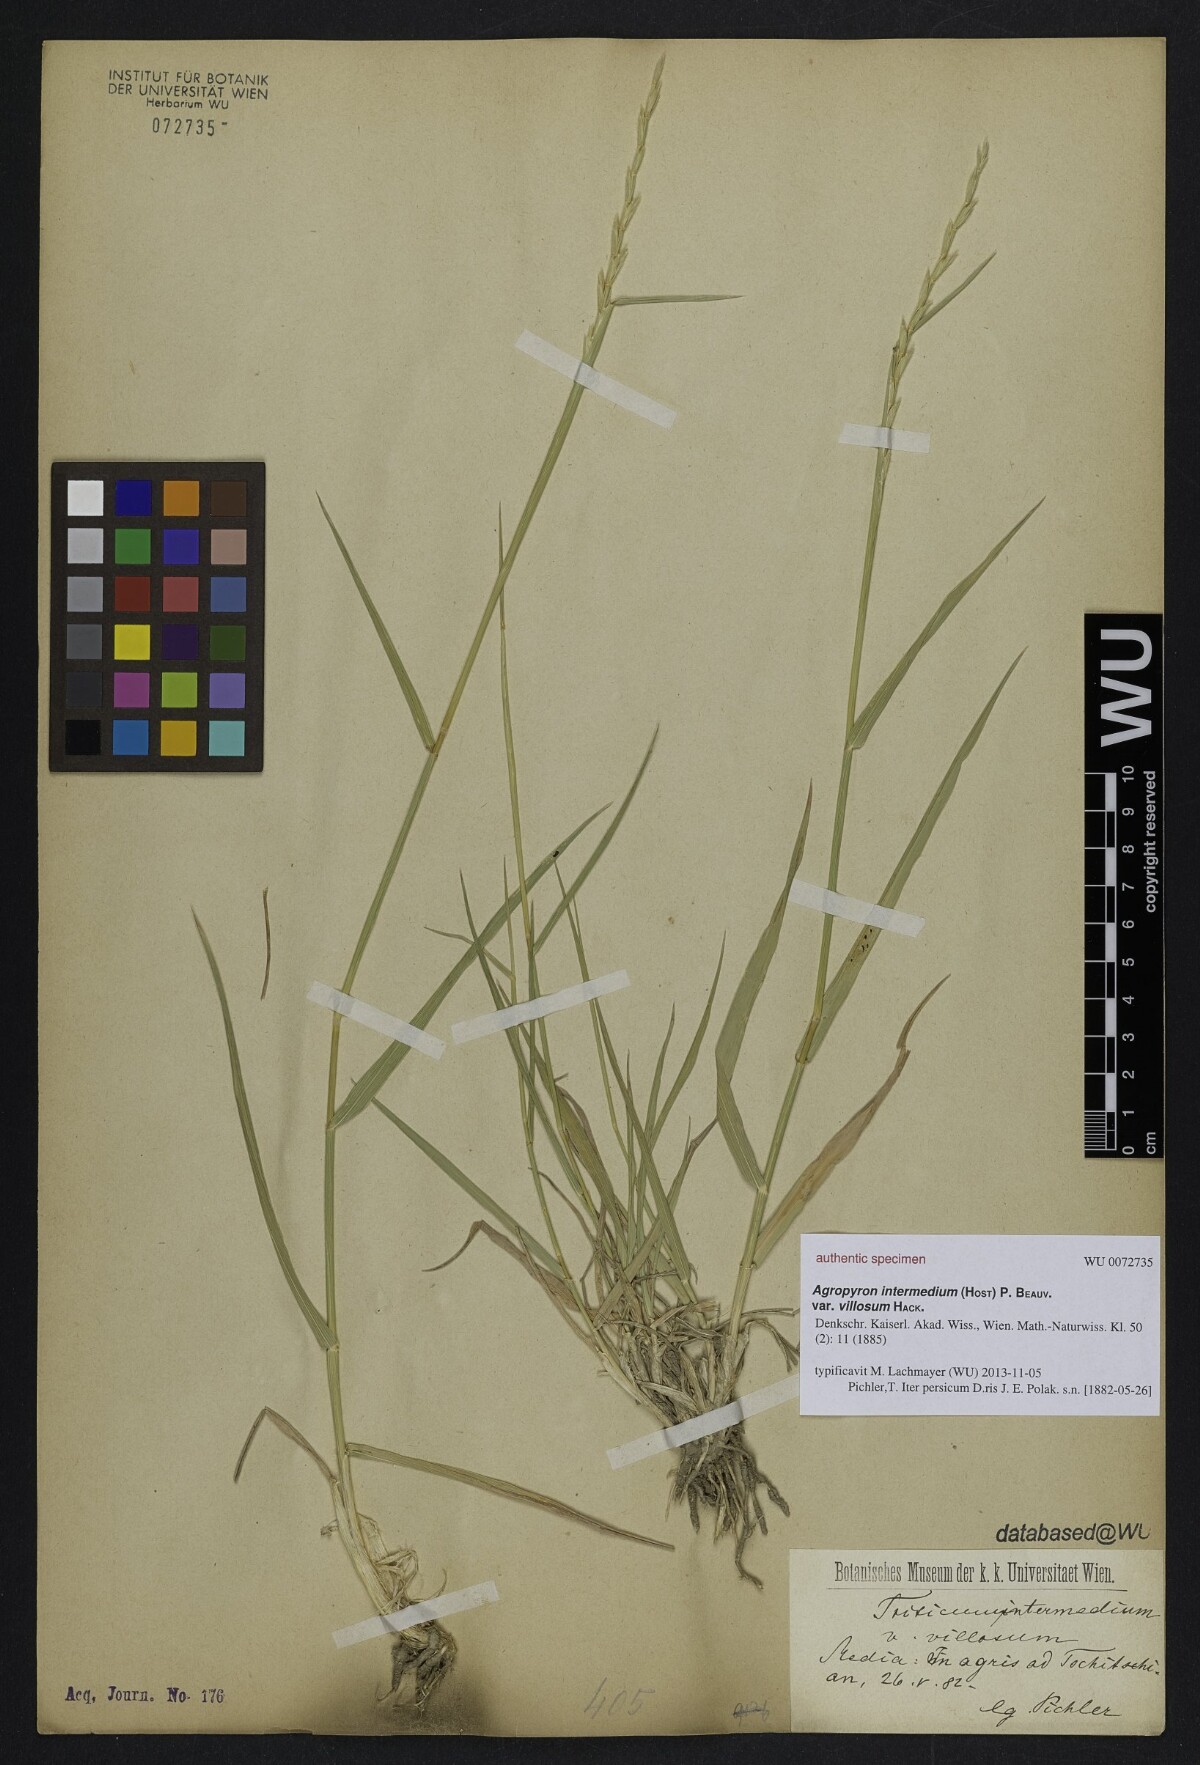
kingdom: Plantae
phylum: Tracheophyta
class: Liliopsida
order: Poales
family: Poaceae
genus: Thinopyrum
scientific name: Thinopyrum intermedium
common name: Intermediate wheatgrass
